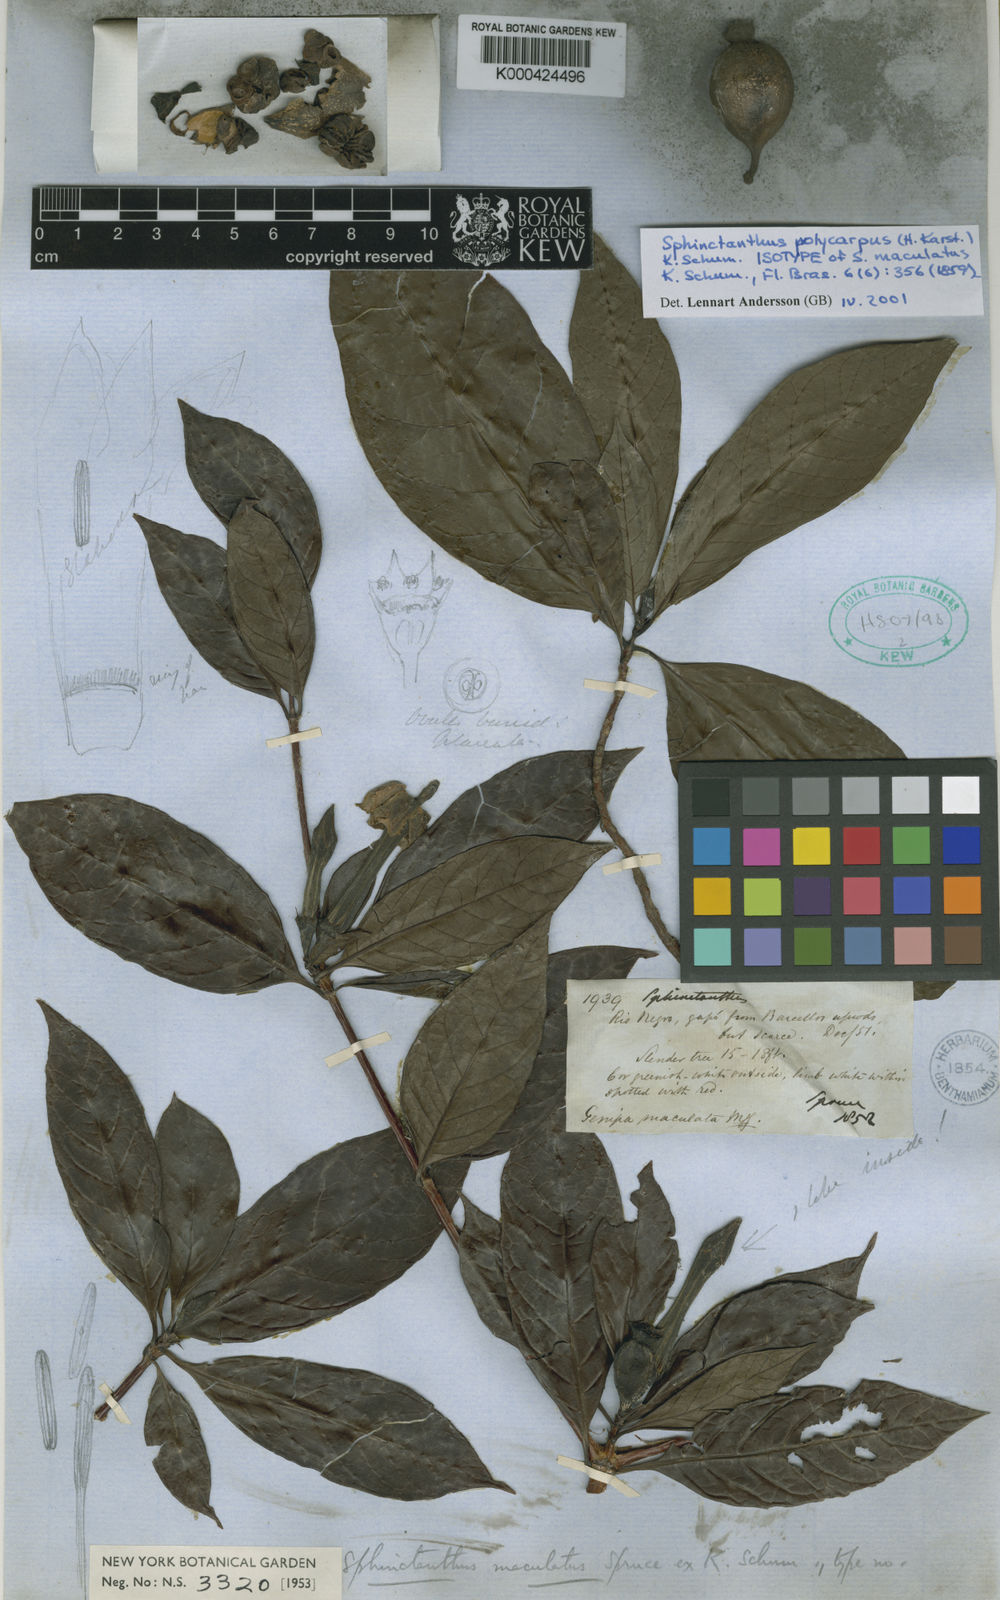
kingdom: Plantae
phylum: Tracheophyta
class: Magnoliopsida
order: Gentianales
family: Rubiaceae
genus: Sphinctanthus
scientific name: Sphinctanthus polycarpus
